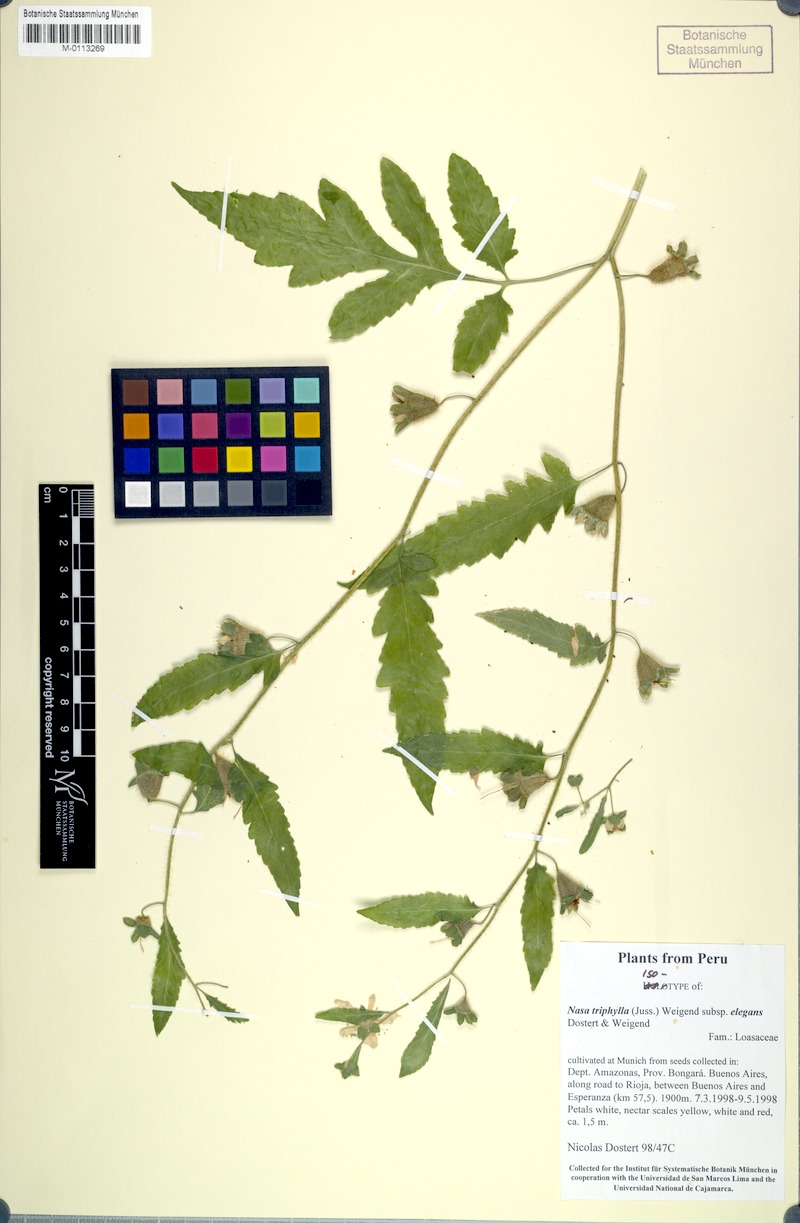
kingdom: Plantae
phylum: Tracheophyta
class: Magnoliopsida
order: Cornales
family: Loasaceae
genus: Nasa
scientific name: Nasa triphylla
